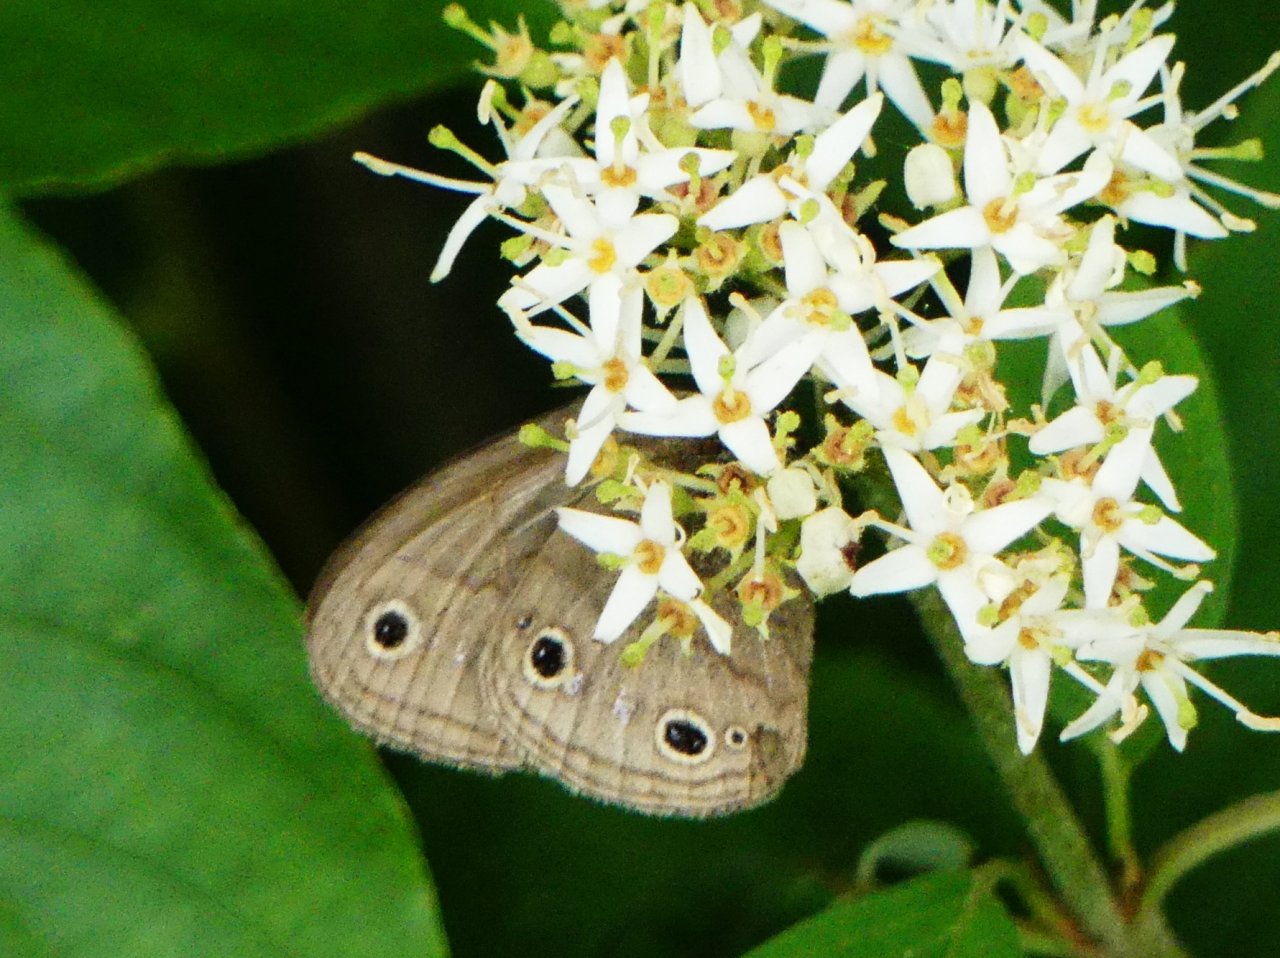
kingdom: Animalia
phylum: Arthropoda
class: Insecta
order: Lepidoptera
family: Nymphalidae
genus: Euptychia
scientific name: Euptychia cymela
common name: Little Wood Satyr
